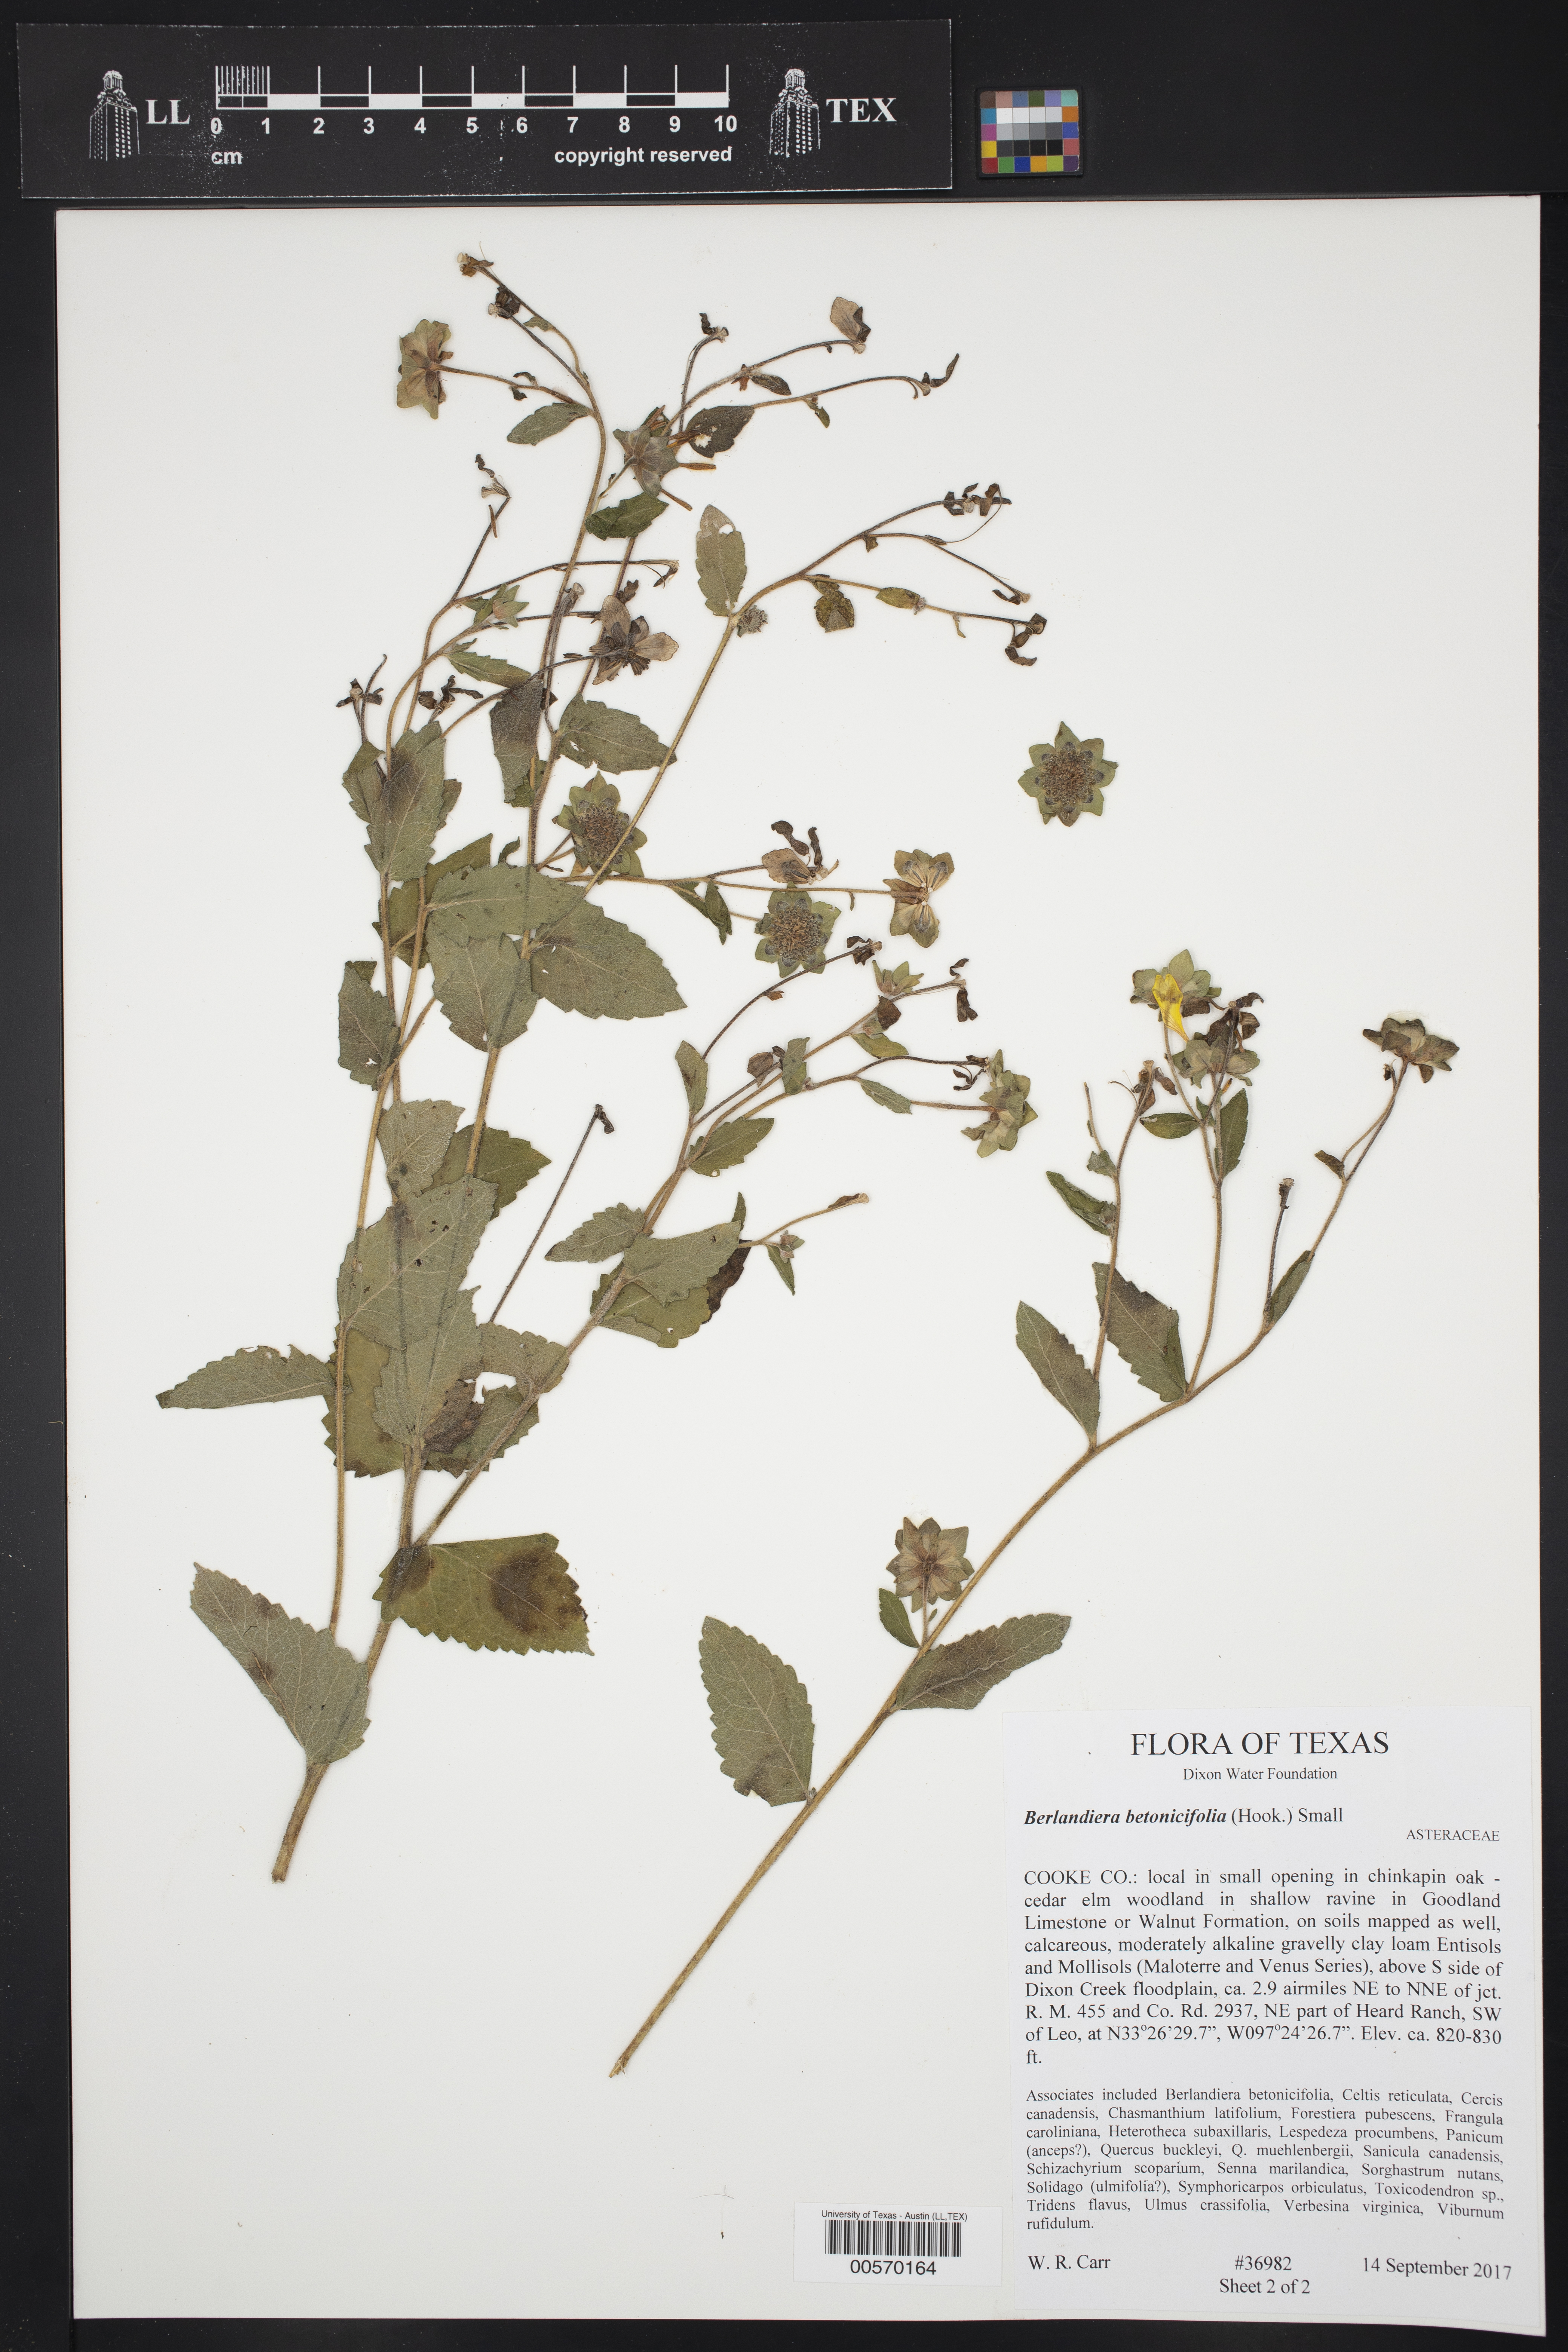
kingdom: Plantae
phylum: Tracheophyta
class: Magnoliopsida
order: Asterales
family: Asteraceae
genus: Berlandiera
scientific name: Berlandiera betonicifolia
